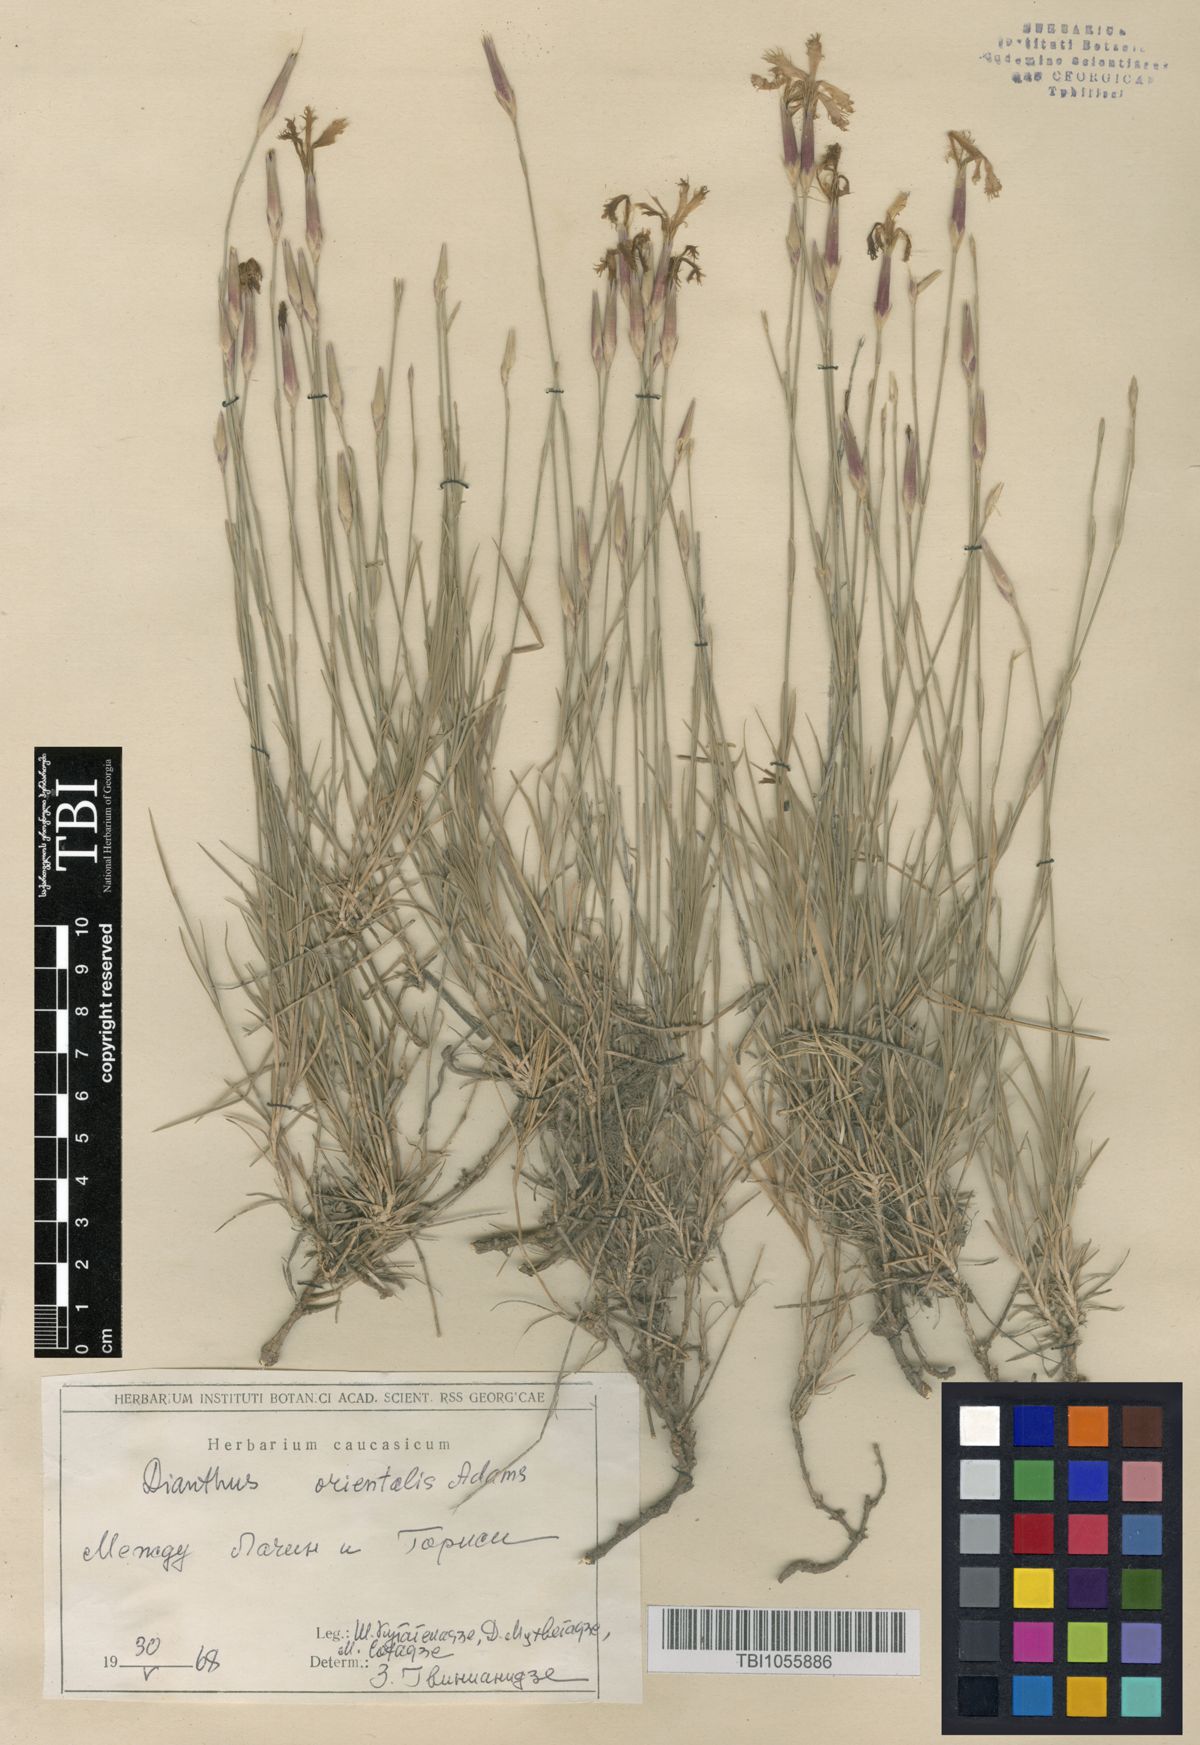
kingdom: Plantae
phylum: Tracheophyta
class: Magnoliopsida
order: Caryophyllales
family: Caryophyllaceae
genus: Dianthus
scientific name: Dianthus orientalis
